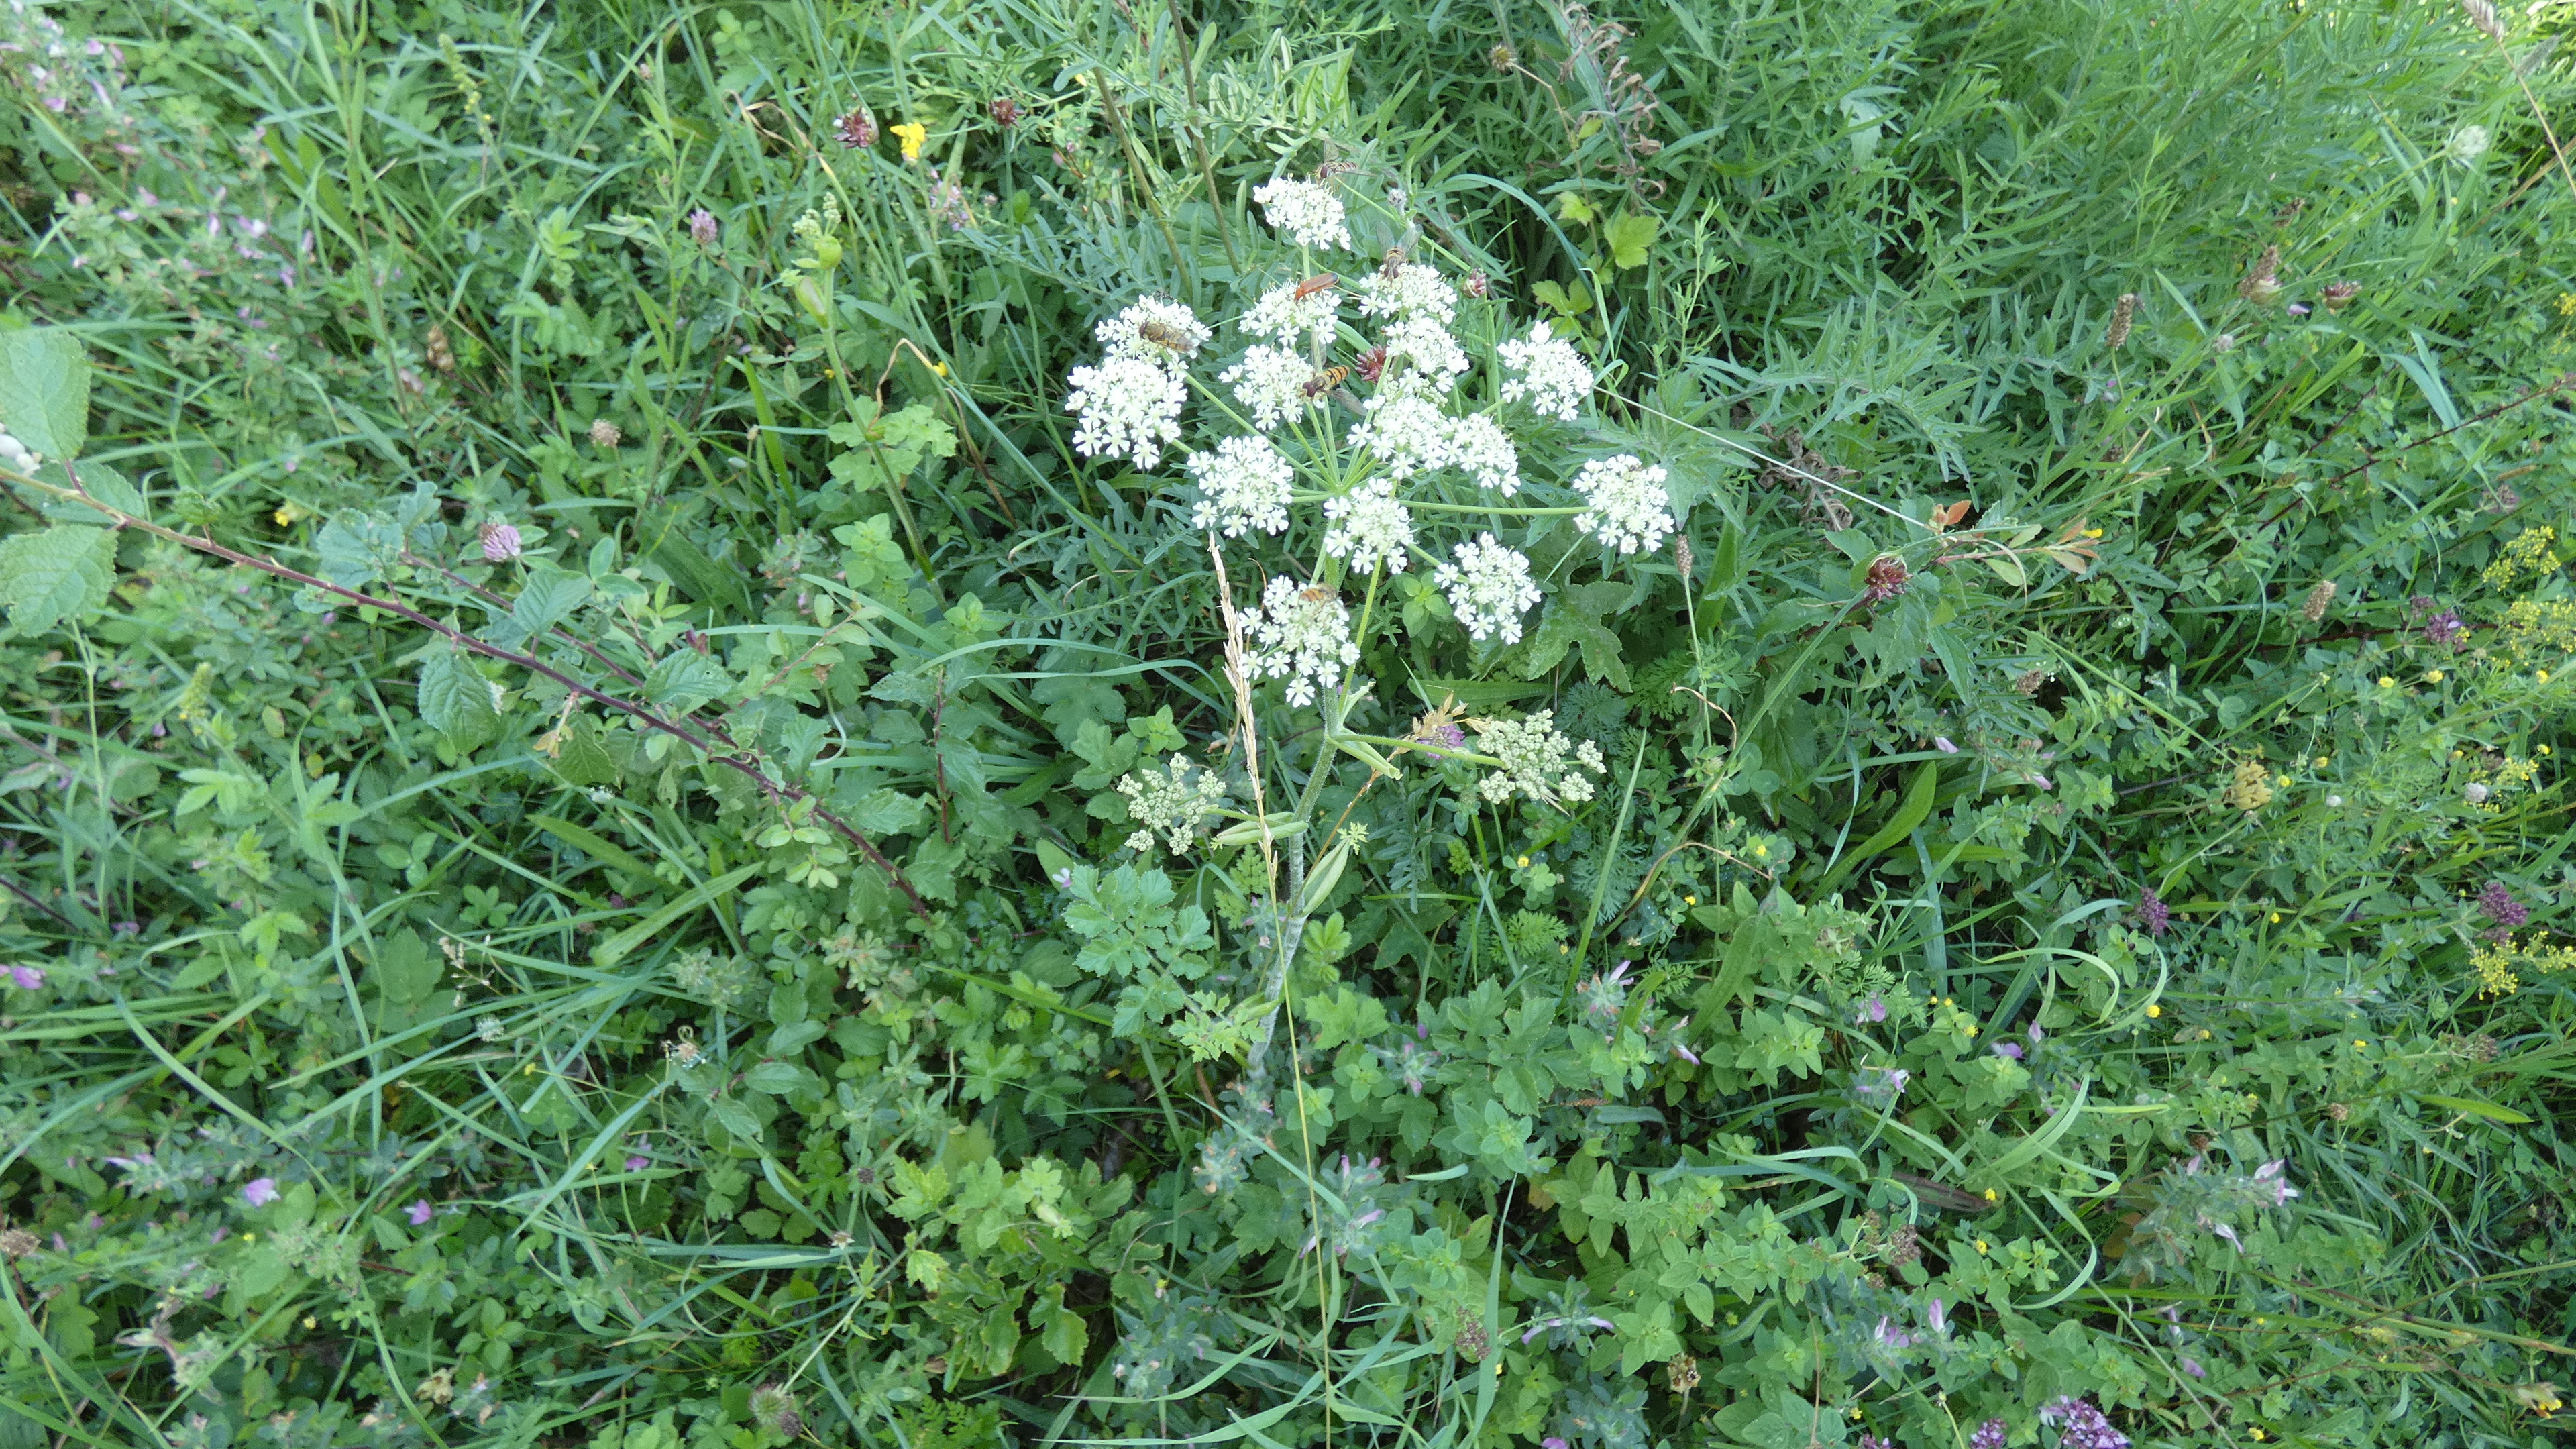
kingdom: Plantae
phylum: Tracheophyta
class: Magnoliopsida
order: Apiales
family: Apiaceae
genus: Heracleum
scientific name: Heracleum sphondylium
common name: Almindelig bjørneklo
